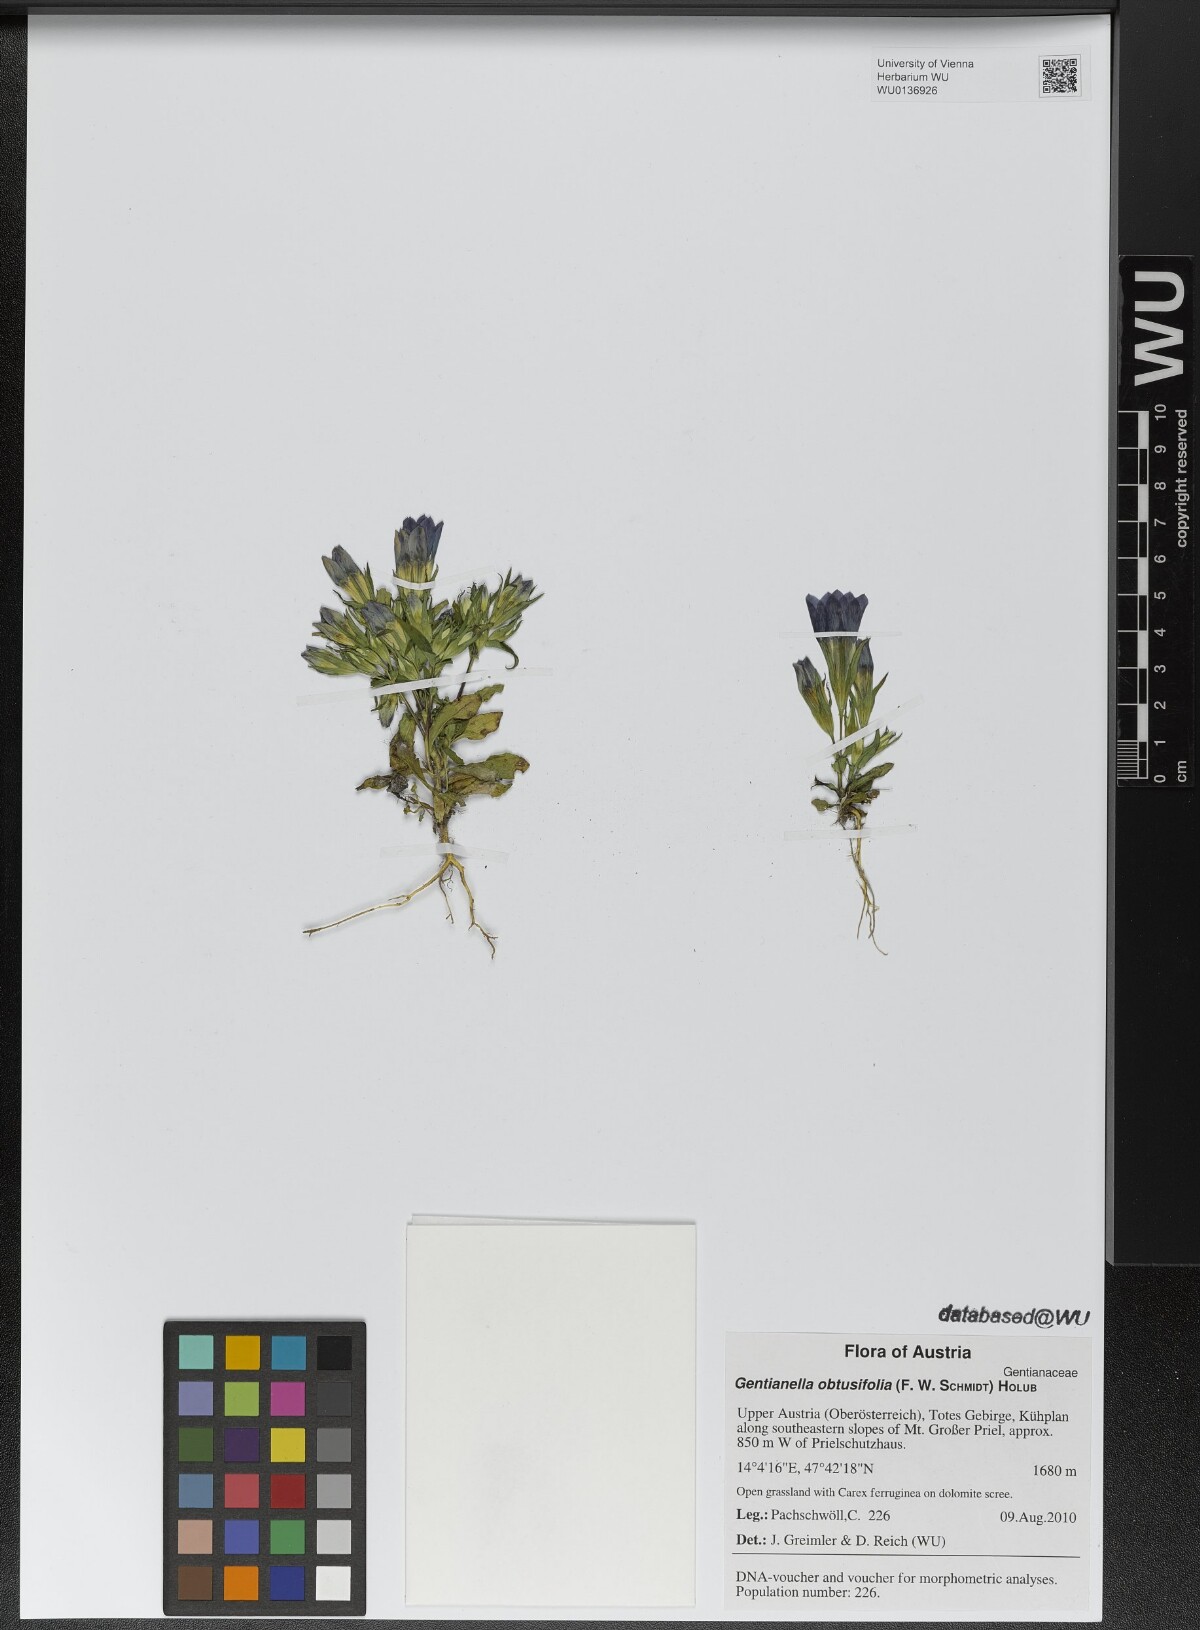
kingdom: Plantae
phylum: Tracheophyta
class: Magnoliopsida
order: Gentianales
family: Gentianaceae
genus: Gentianella
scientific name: Gentianella obtusifolia
